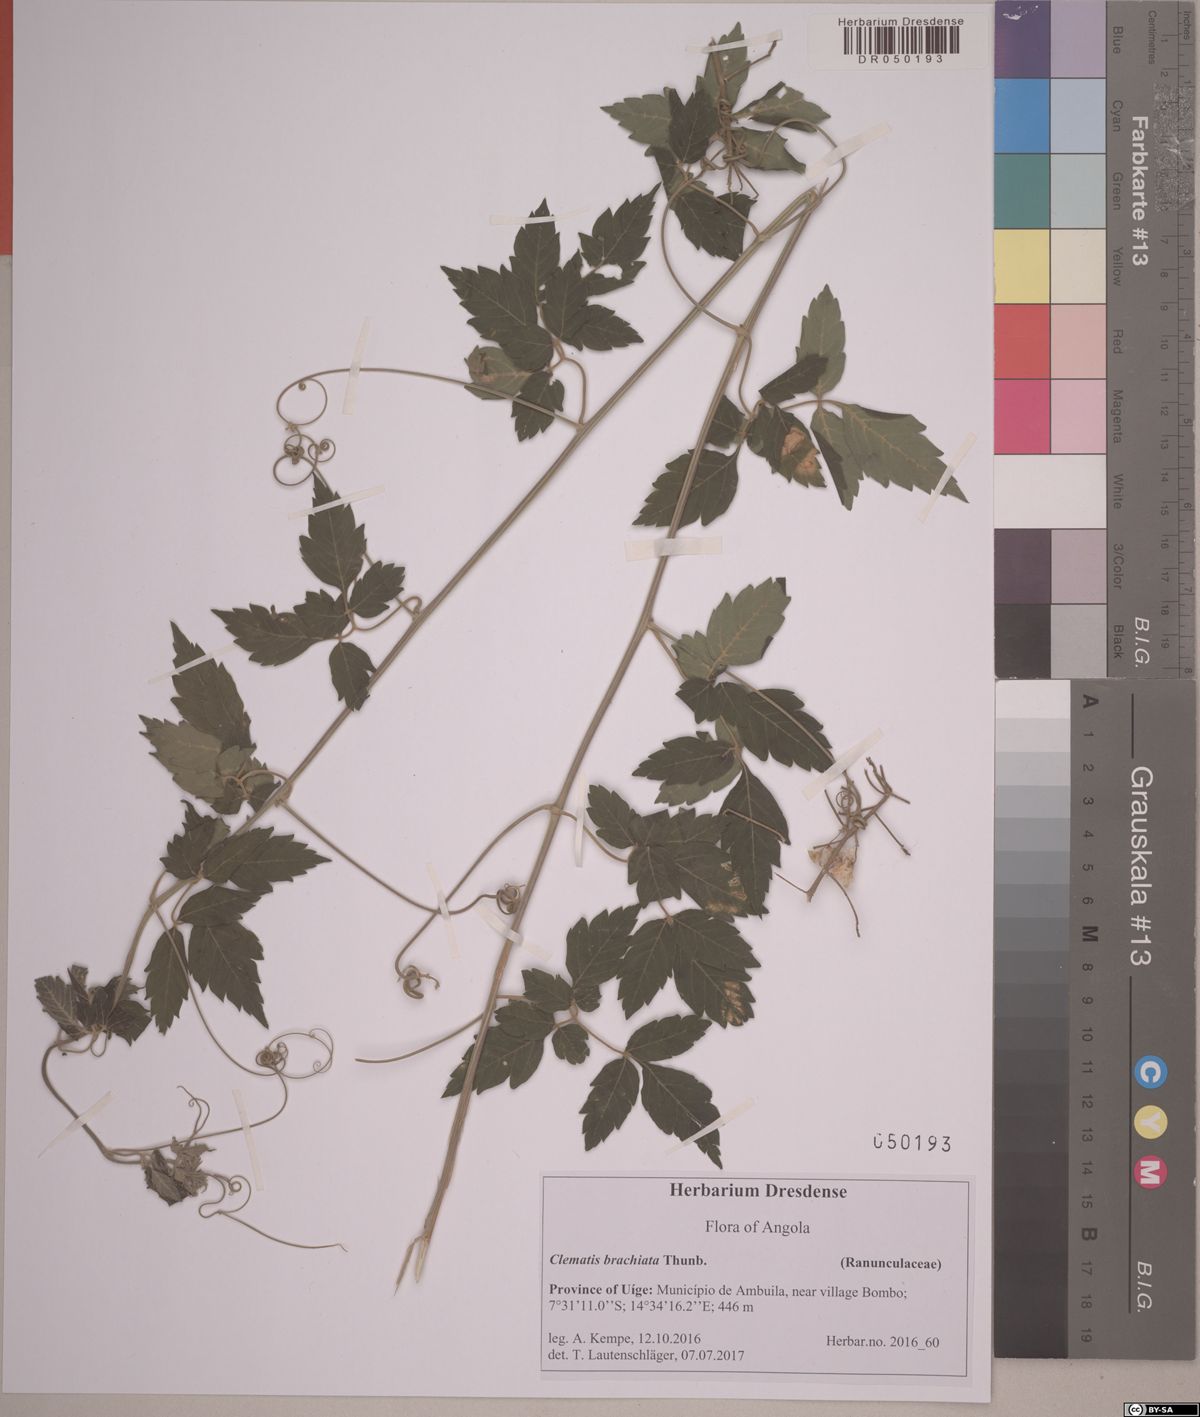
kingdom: Plantae
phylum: Tracheophyta
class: Magnoliopsida
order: Sapindales
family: Sapindaceae
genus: Cardiospermum
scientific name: Cardiospermum grandiflorum
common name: Balloon vine
